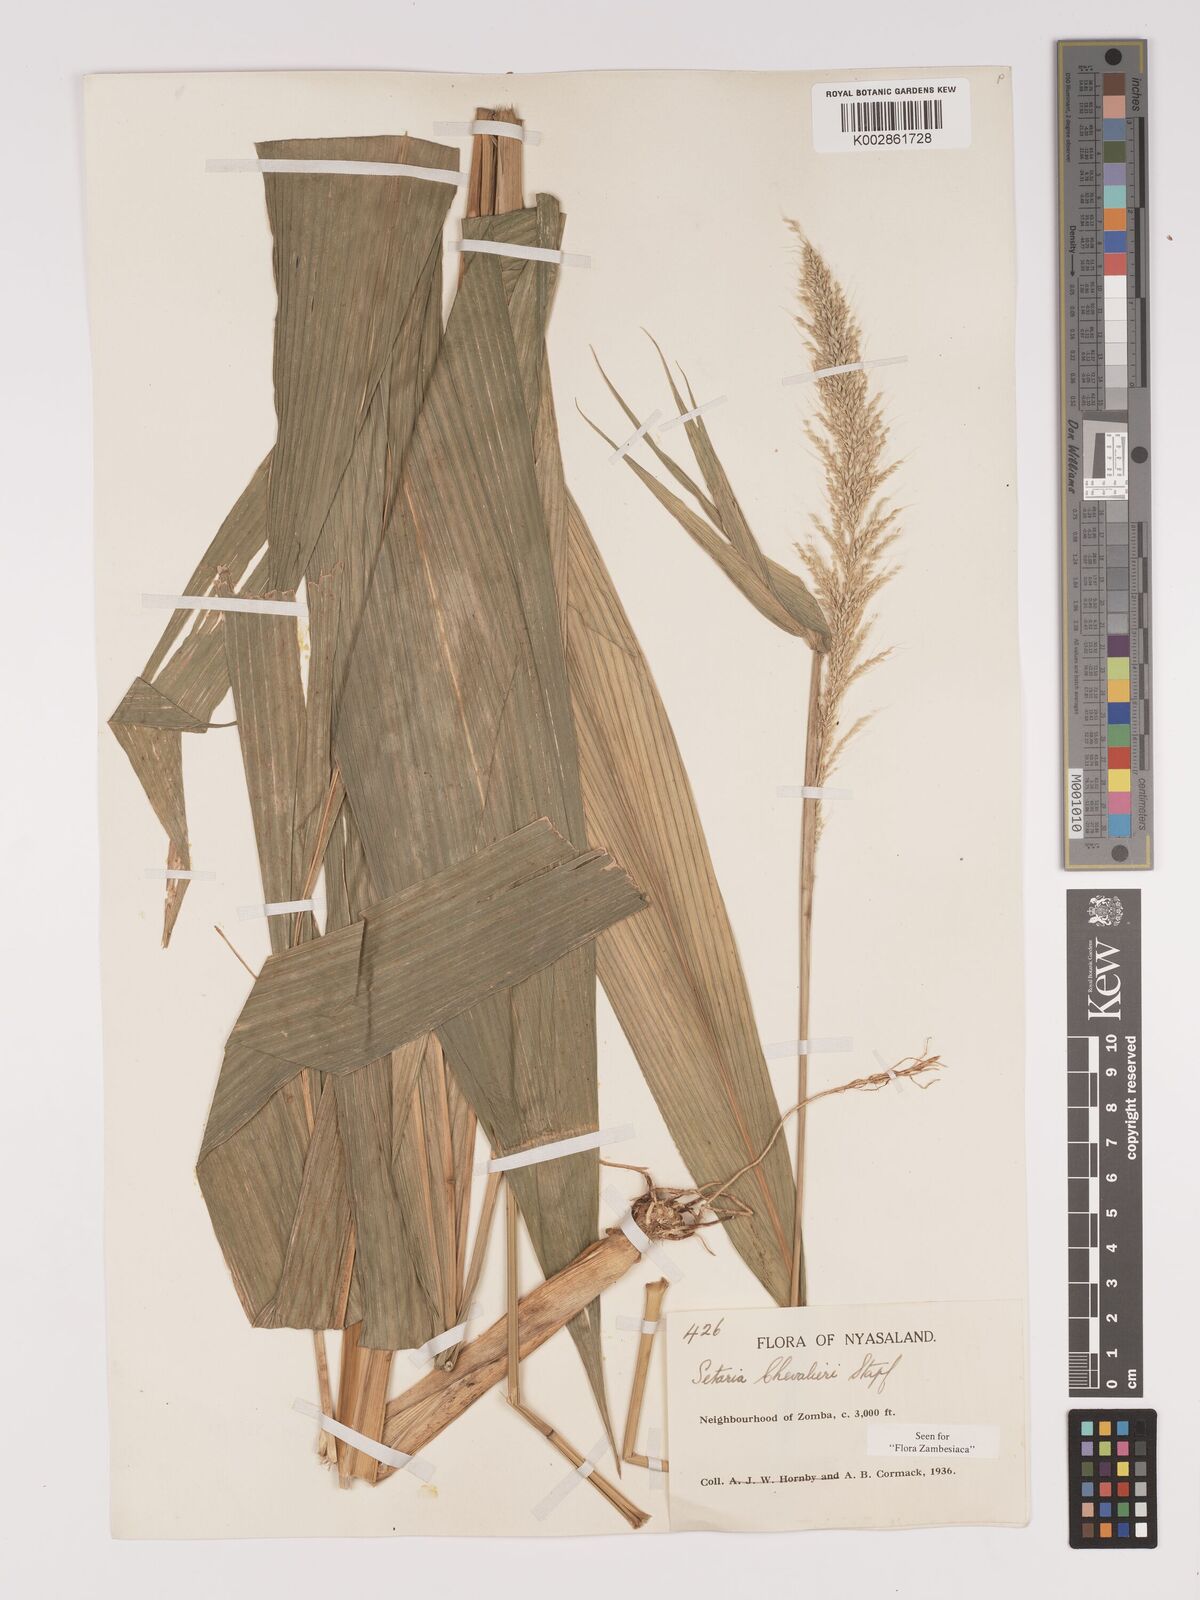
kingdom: Plantae
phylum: Tracheophyta
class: Liliopsida
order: Poales
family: Poaceae
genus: Setaria
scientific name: Setaria megaphylla
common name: Bigleaf bristlegrass
